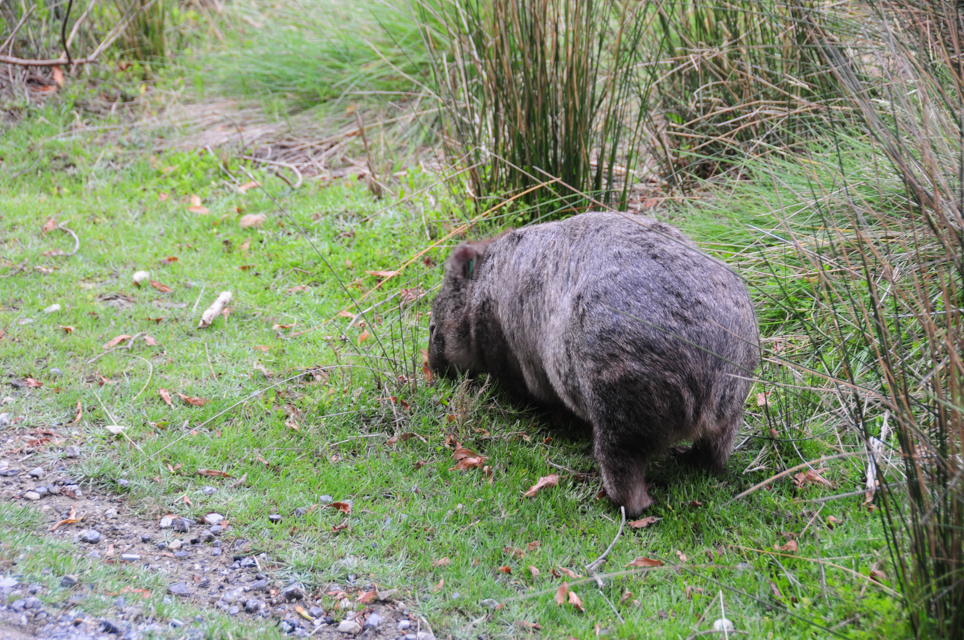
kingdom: Animalia
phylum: Chordata
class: Mammalia
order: Diprotodontia
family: Vombatidae
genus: Vombatus
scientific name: Vombatus ursinus
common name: Common wombat
